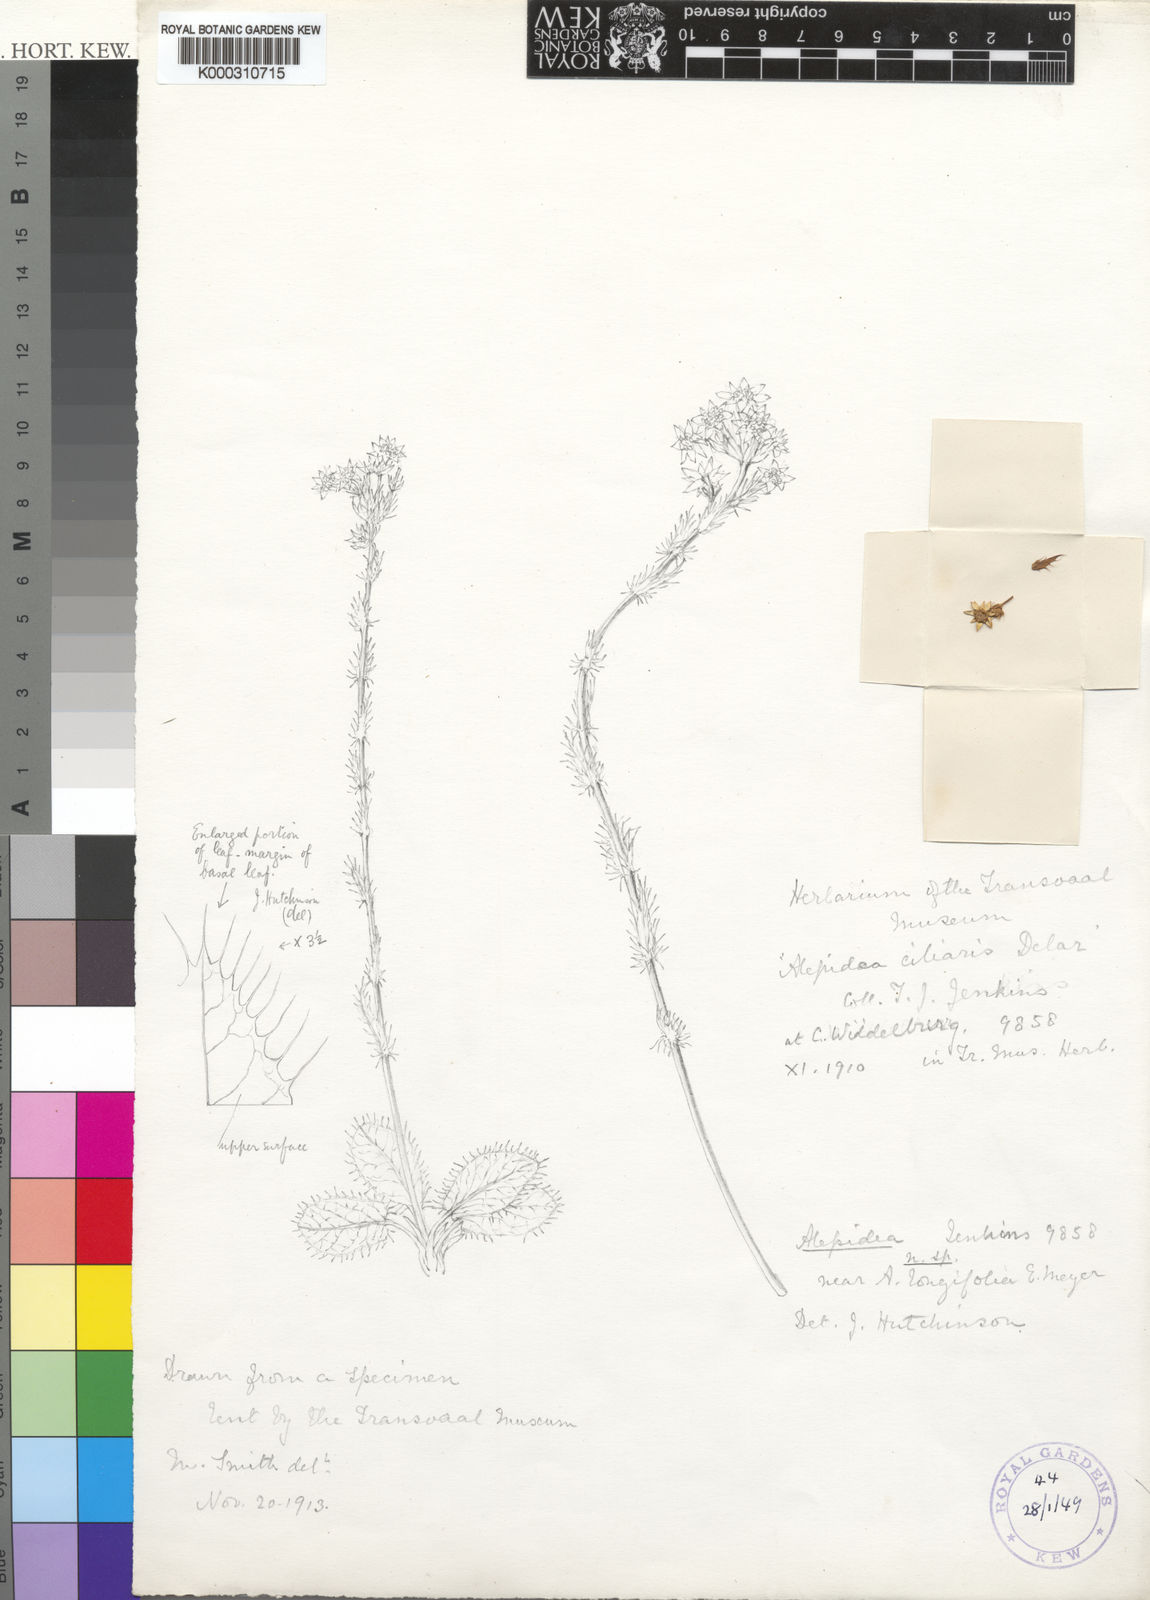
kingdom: Plantae
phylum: Tracheophyta
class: Magnoliopsida
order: Apiales
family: Apiaceae
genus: Alepidea
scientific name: Alepidea setifera
